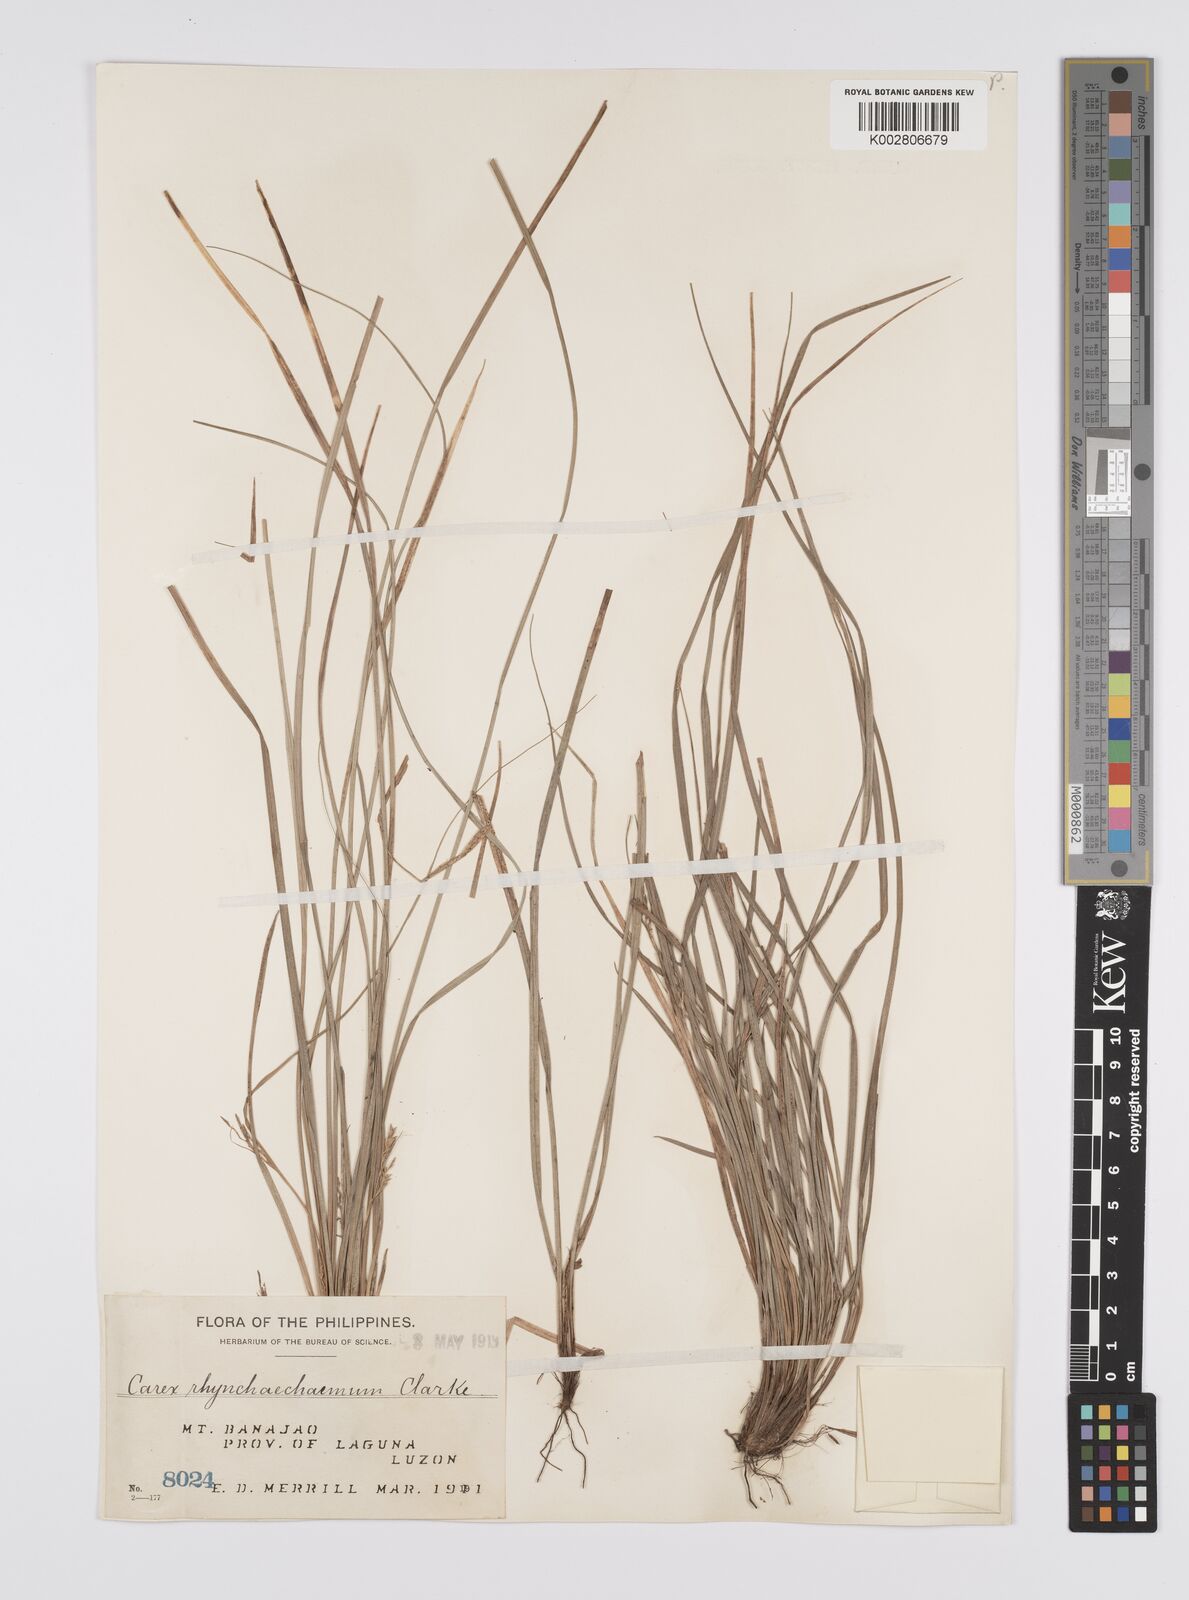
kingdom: Plantae
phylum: Tracheophyta
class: Liliopsida
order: Poales
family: Cyperaceae
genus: Carex
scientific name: Carex rhynchachaenium
